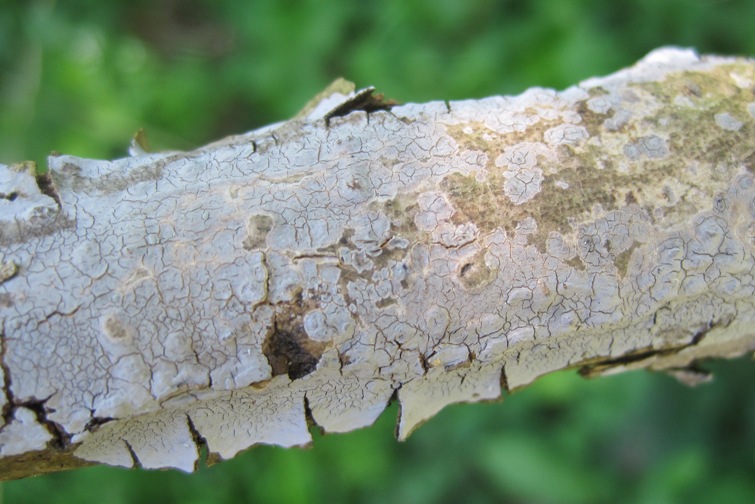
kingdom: Fungi
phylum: Basidiomycota
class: Agaricomycetes
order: Russulales
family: Peniophoraceae
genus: Peniophora
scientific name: Peniophora lycii
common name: grynet voksskind
